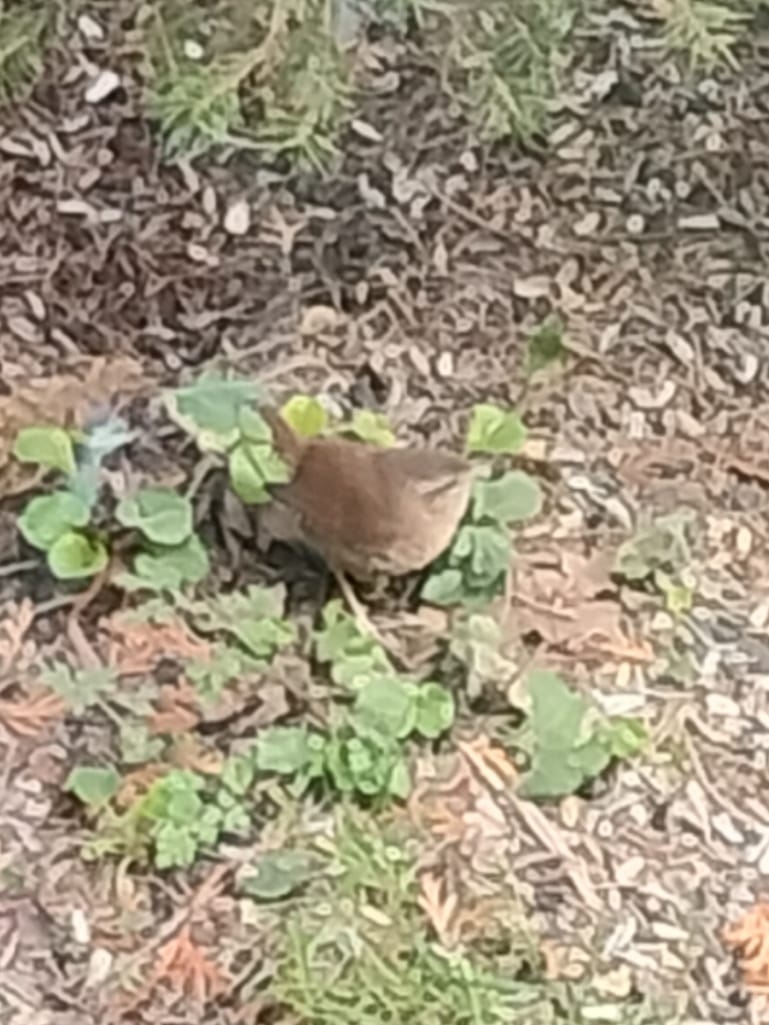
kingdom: Animalia
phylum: Chordata
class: Aves
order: Passeriformes
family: Troglodytidae
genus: Troglodytes
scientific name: Troglodytes troglodytes
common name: Gærdesmutte
